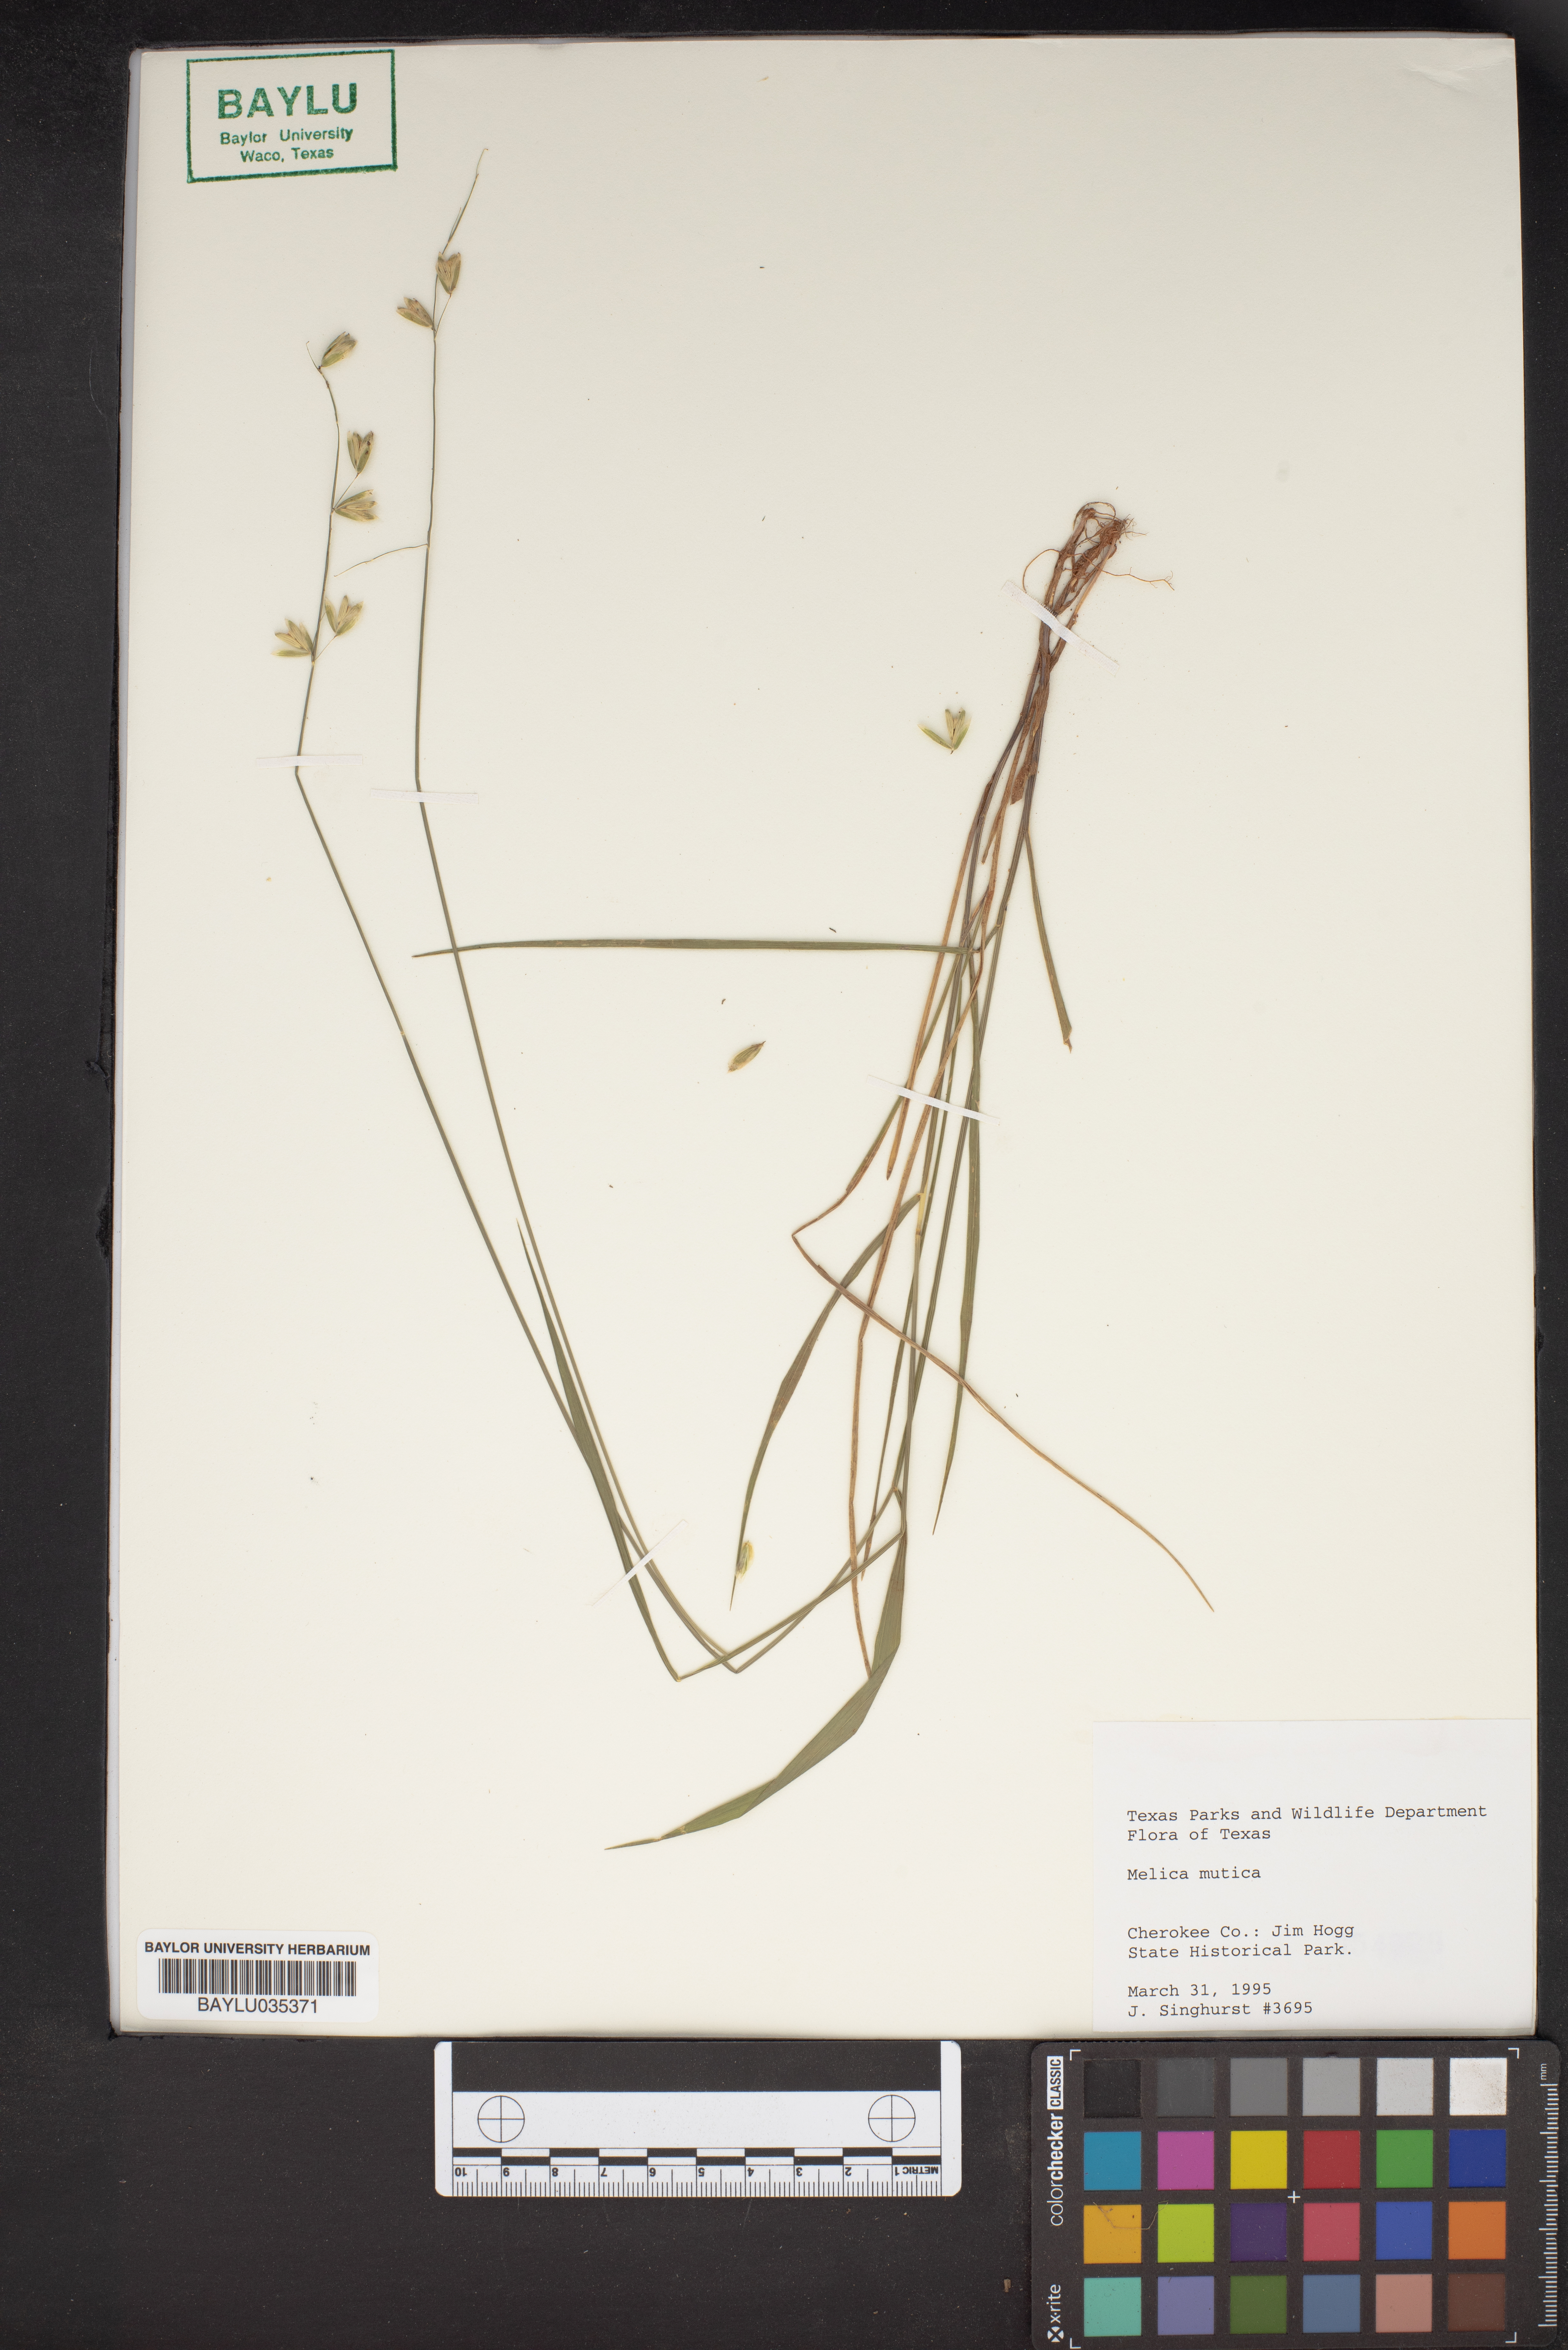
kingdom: Plantae
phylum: Tracheophyta
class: Liliopsida
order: Poales
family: Poaceae
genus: Melica
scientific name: Melica mutica
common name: Two-flower melic
